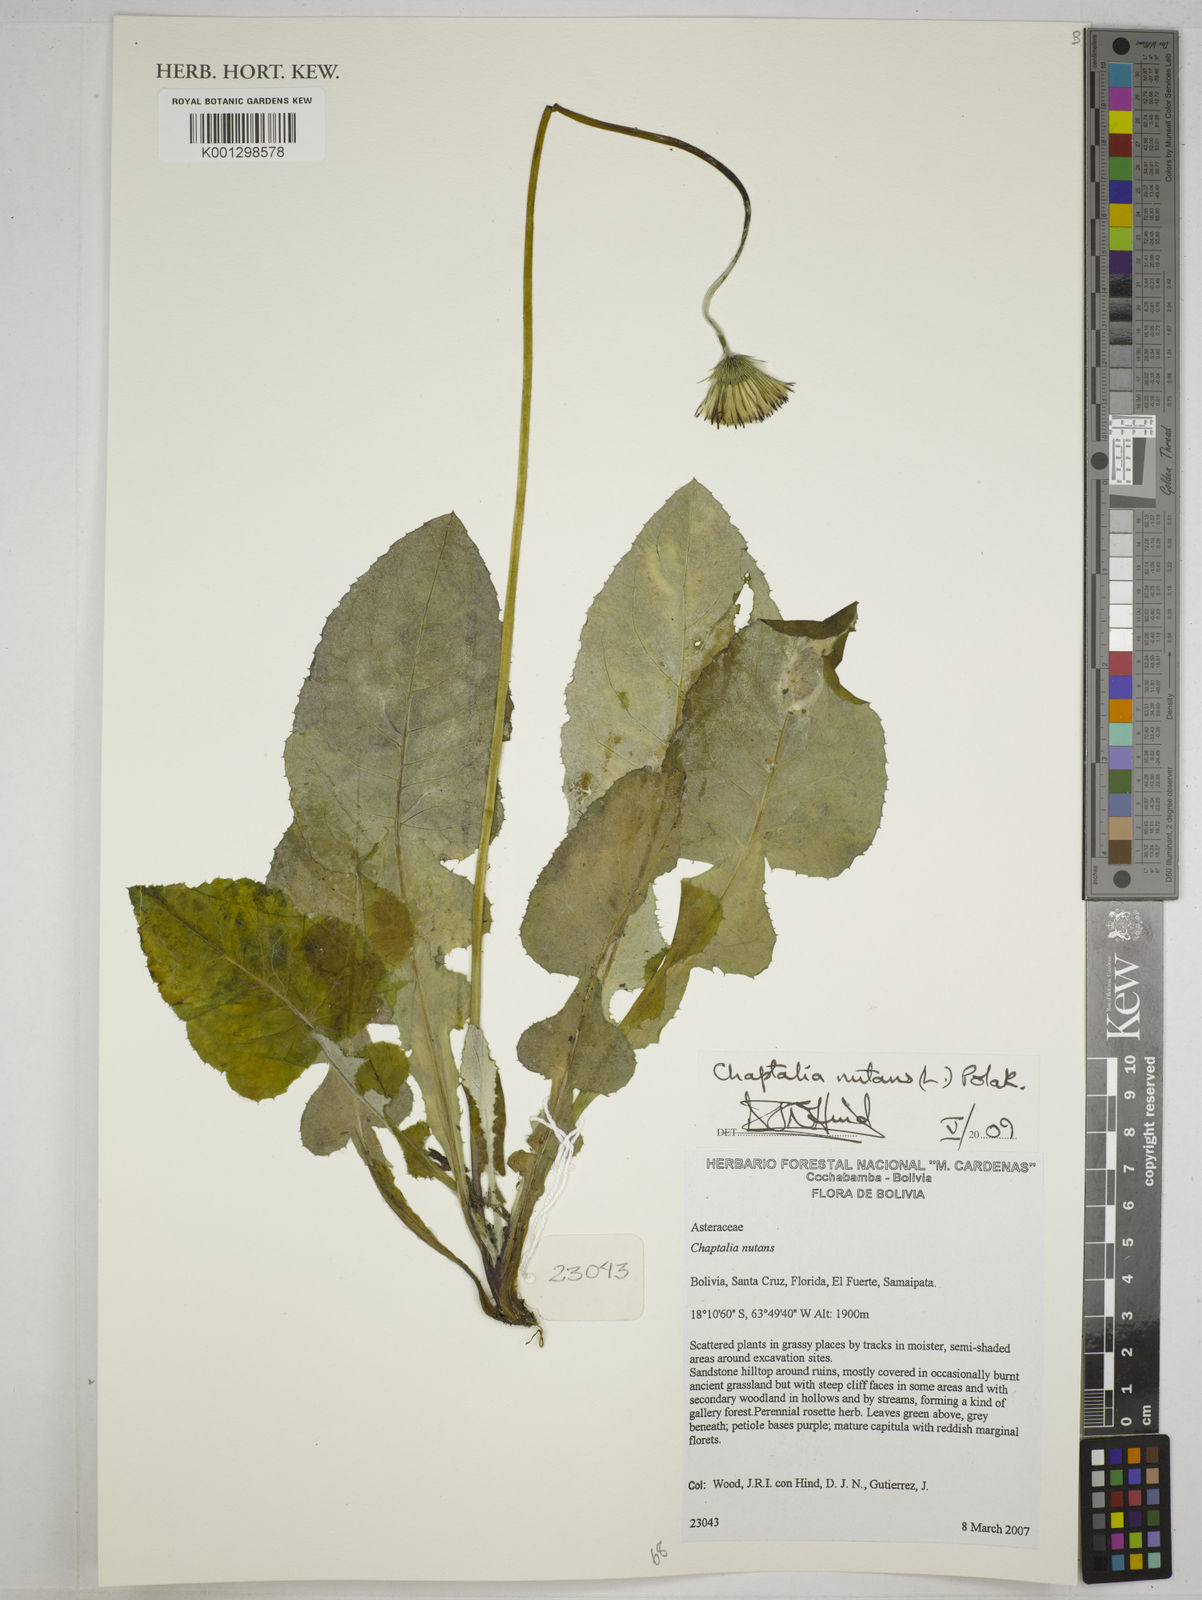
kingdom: Plantae
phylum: Tracheophyta
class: Magnoliopsida
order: Asterales
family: Asteraceae
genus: Chaptalia
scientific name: Chaptalia nutans
